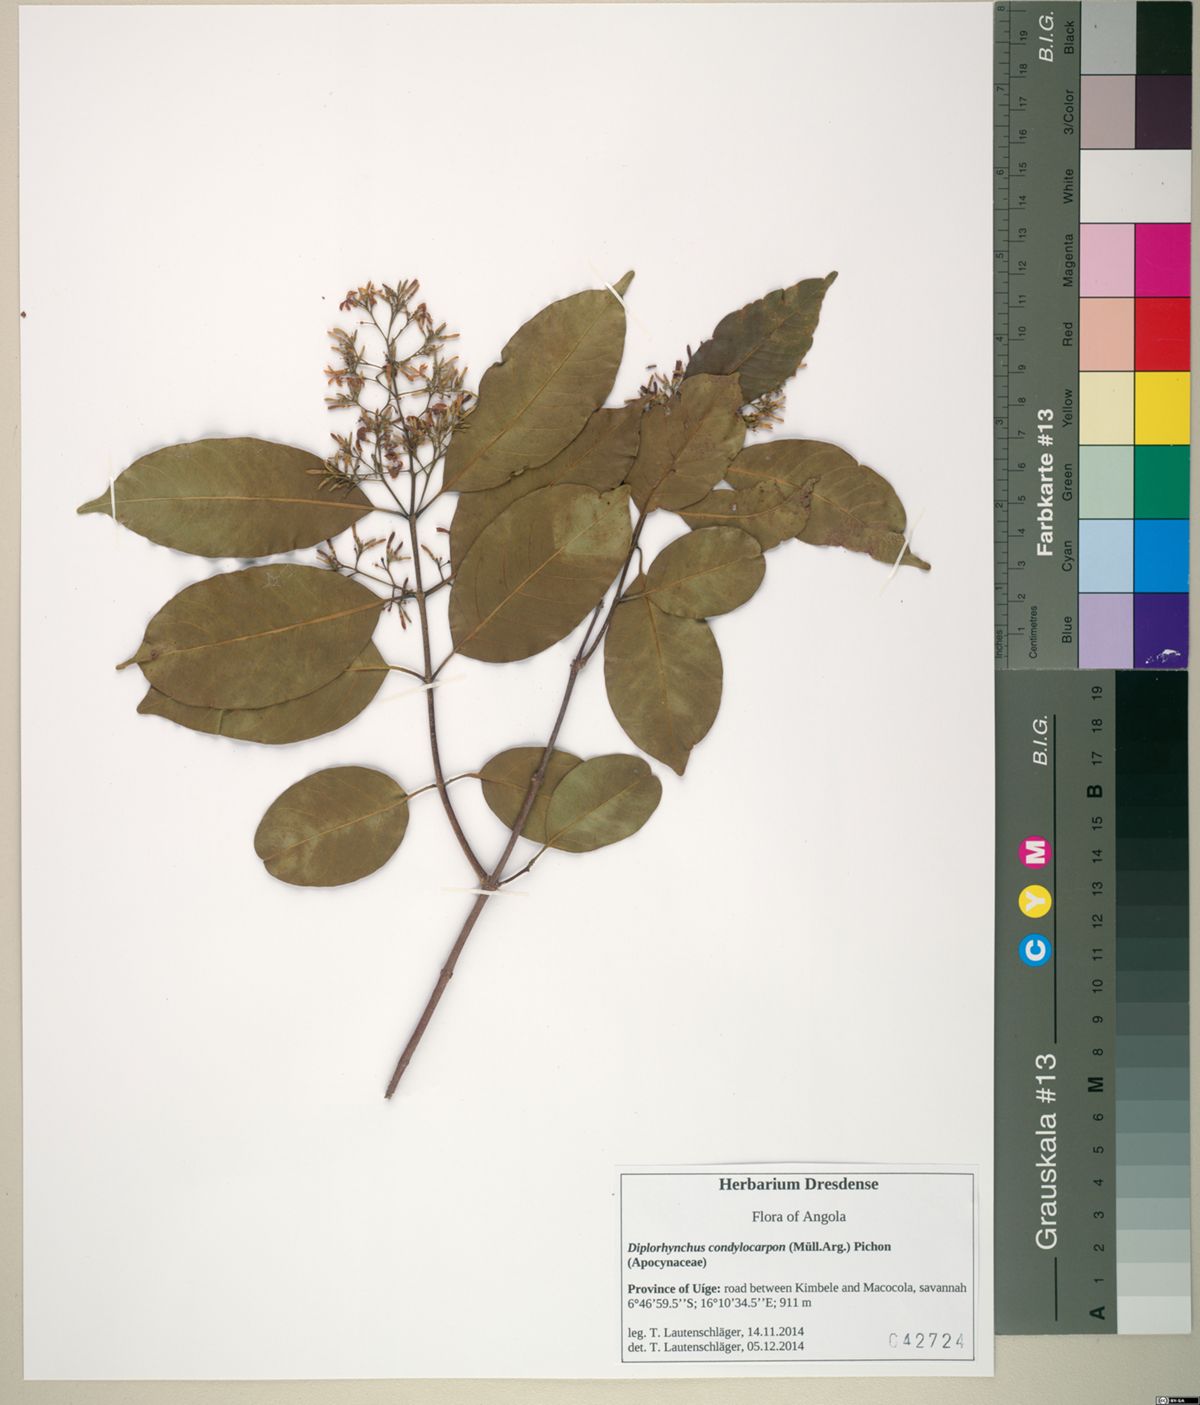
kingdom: Plantae
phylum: Tracheophyta
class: Magnoliopsida
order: Gentianales
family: Apocynaceae
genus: Diplorhynchus
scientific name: Diplorhynchus condylocarpon
